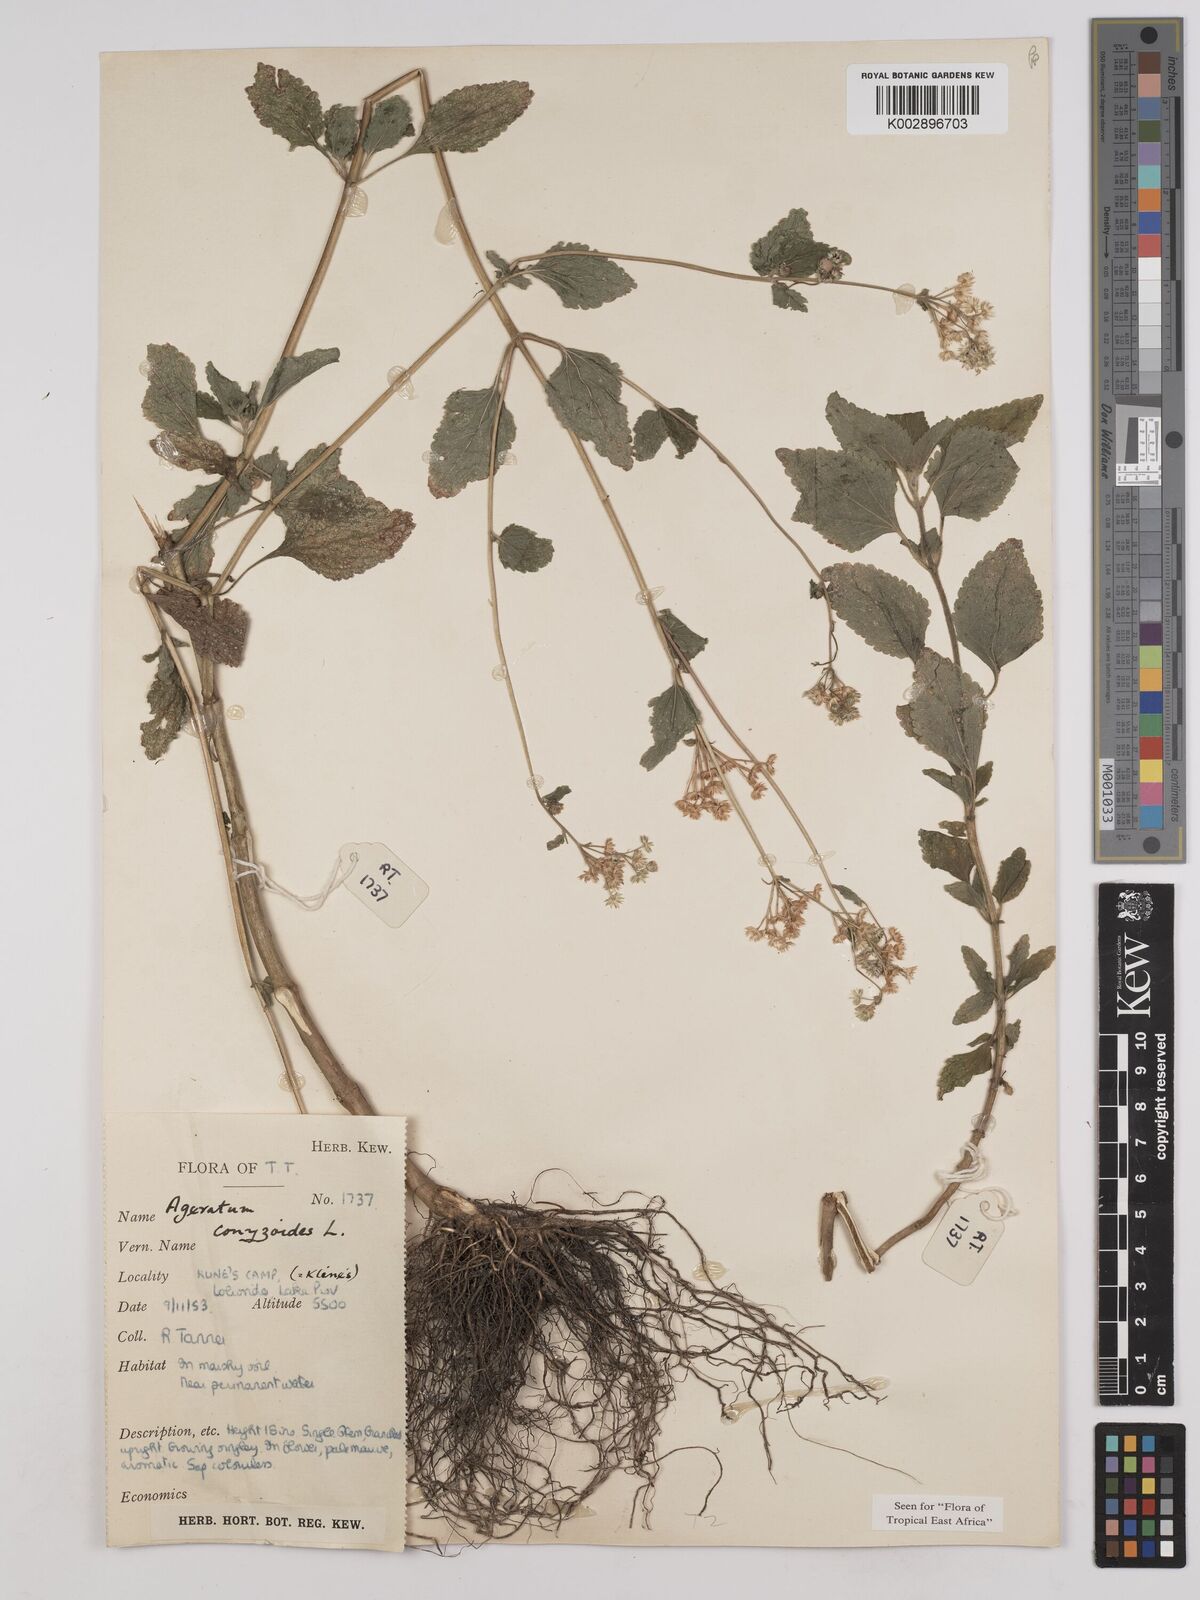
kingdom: Plantae
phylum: Tracheophyta
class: Magnoliopsida
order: Asterales
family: Asteraceae
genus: Ageratum
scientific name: Ageratum conyzoides
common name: Tropical whiteweed
